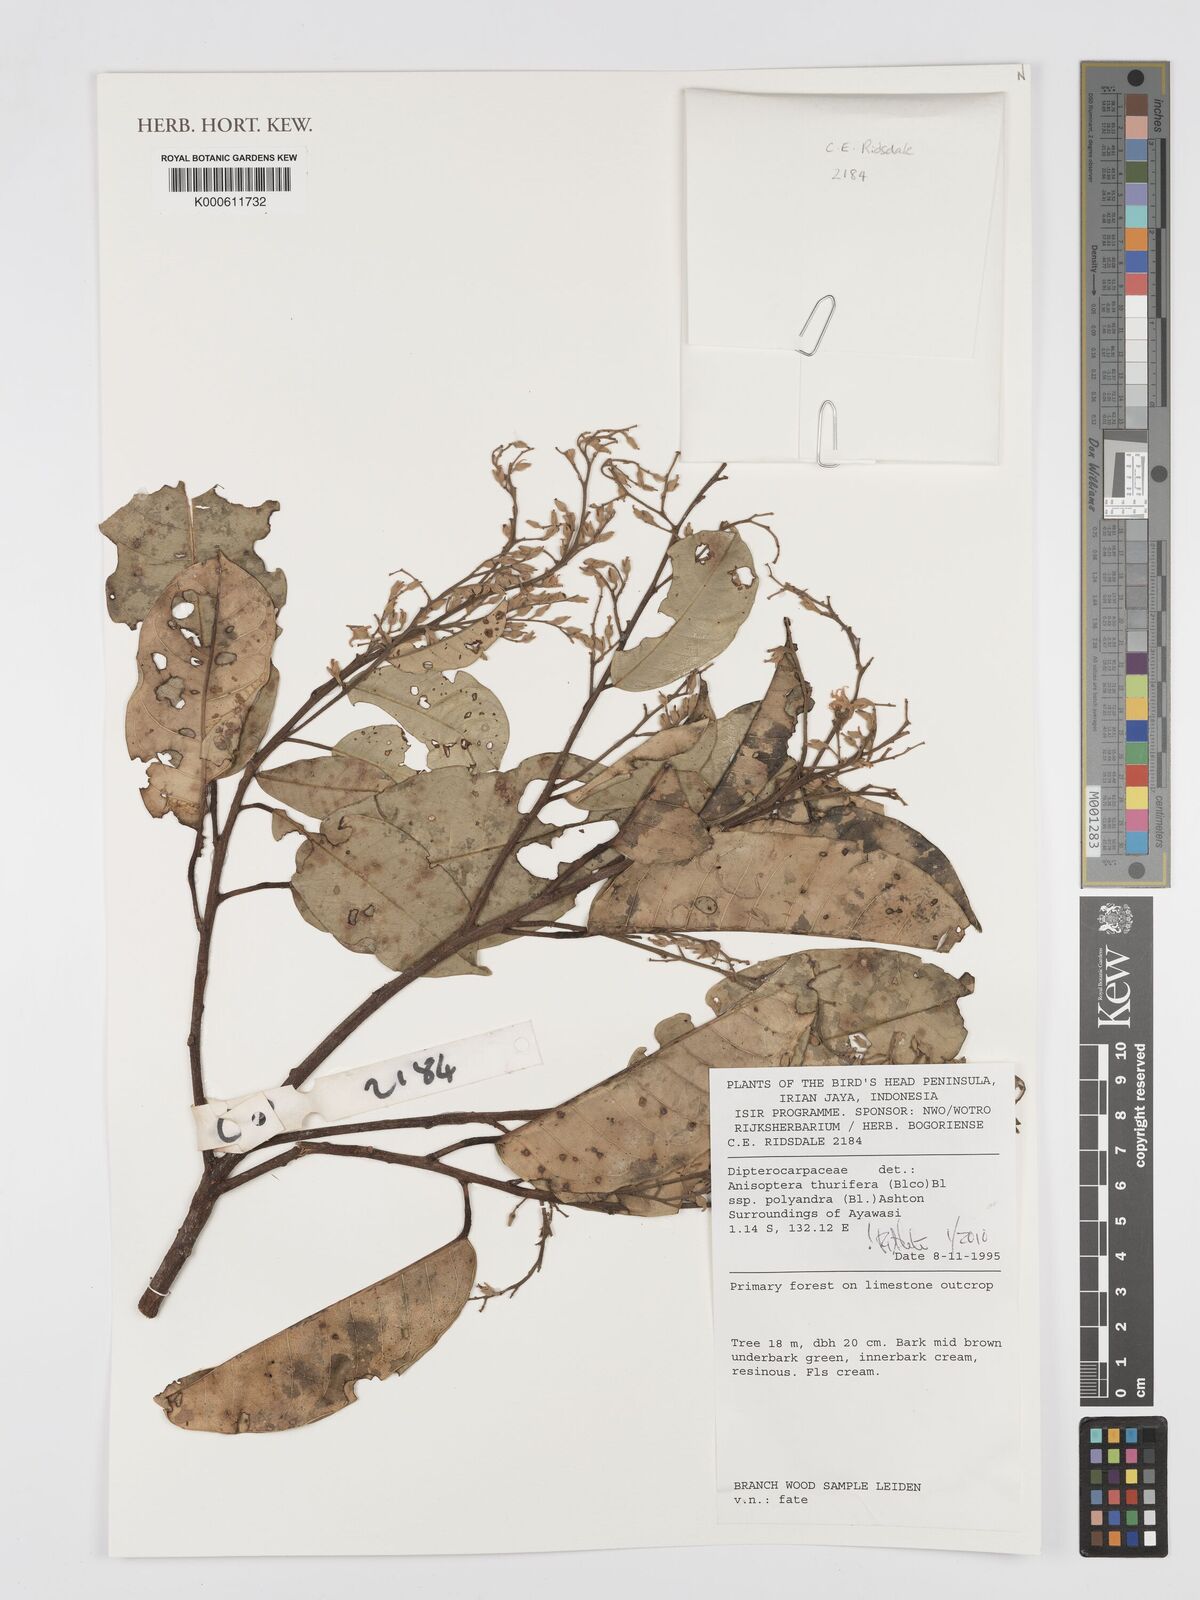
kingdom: Plantae
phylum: Tracheophyta
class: Magnoliopsida
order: Malvales
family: Dipterocarpaceae
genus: Anisoptera
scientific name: Anisoptera thurifera
